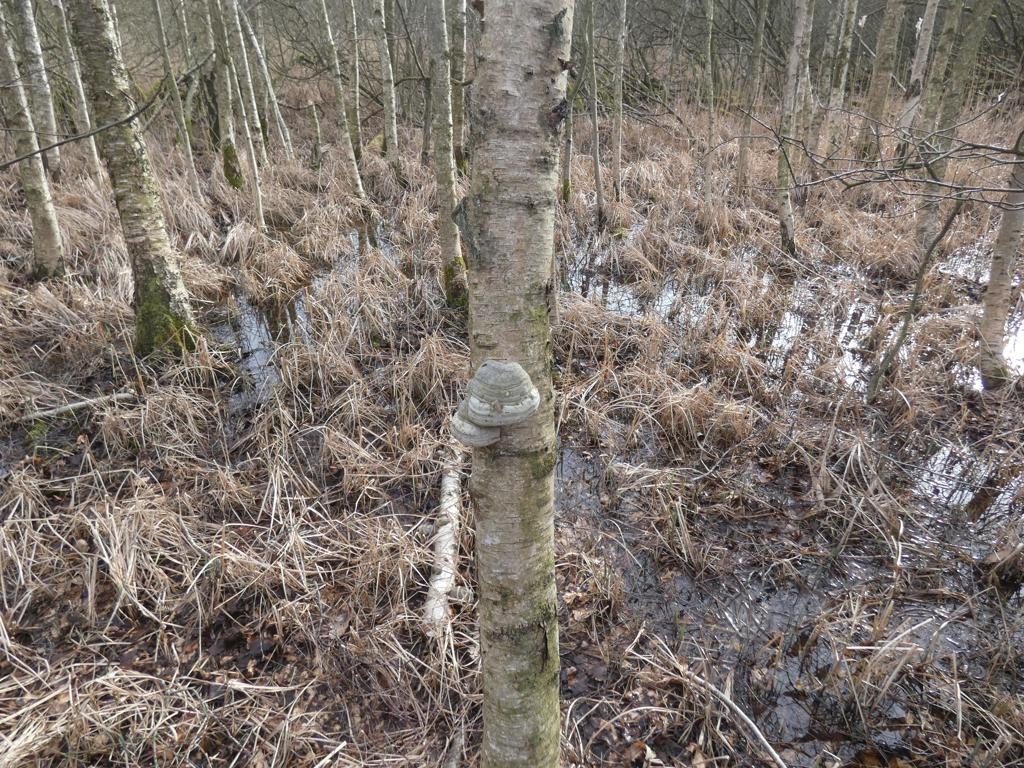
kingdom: Fungi
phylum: Basidiomycota
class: Agaricomycetes
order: Polyporales
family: Polyporaceae
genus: Fomes
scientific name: Fomes fomentarius
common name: Tøndersvamp
